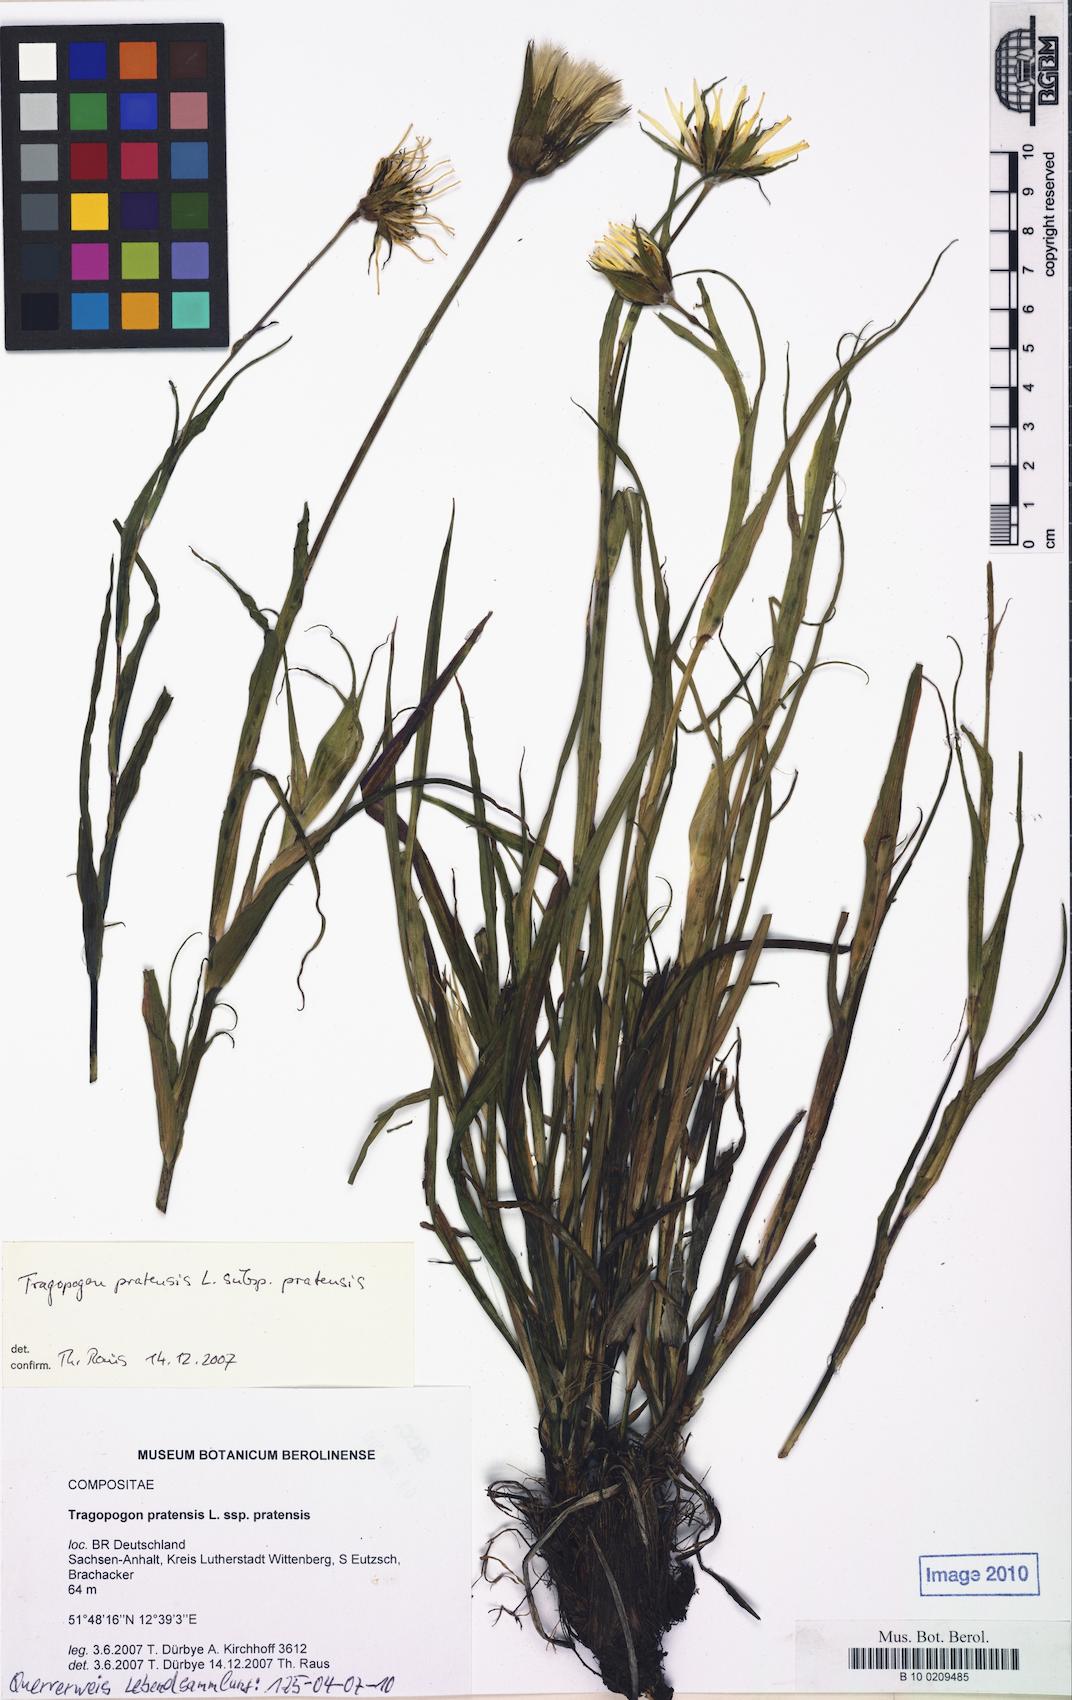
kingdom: Plantae
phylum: Tracheophyta
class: Magnoliopsida
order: Asterales
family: Asteraceae
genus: Tragopogon
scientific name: Tragopogon pratensis
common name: Goat's-beard
